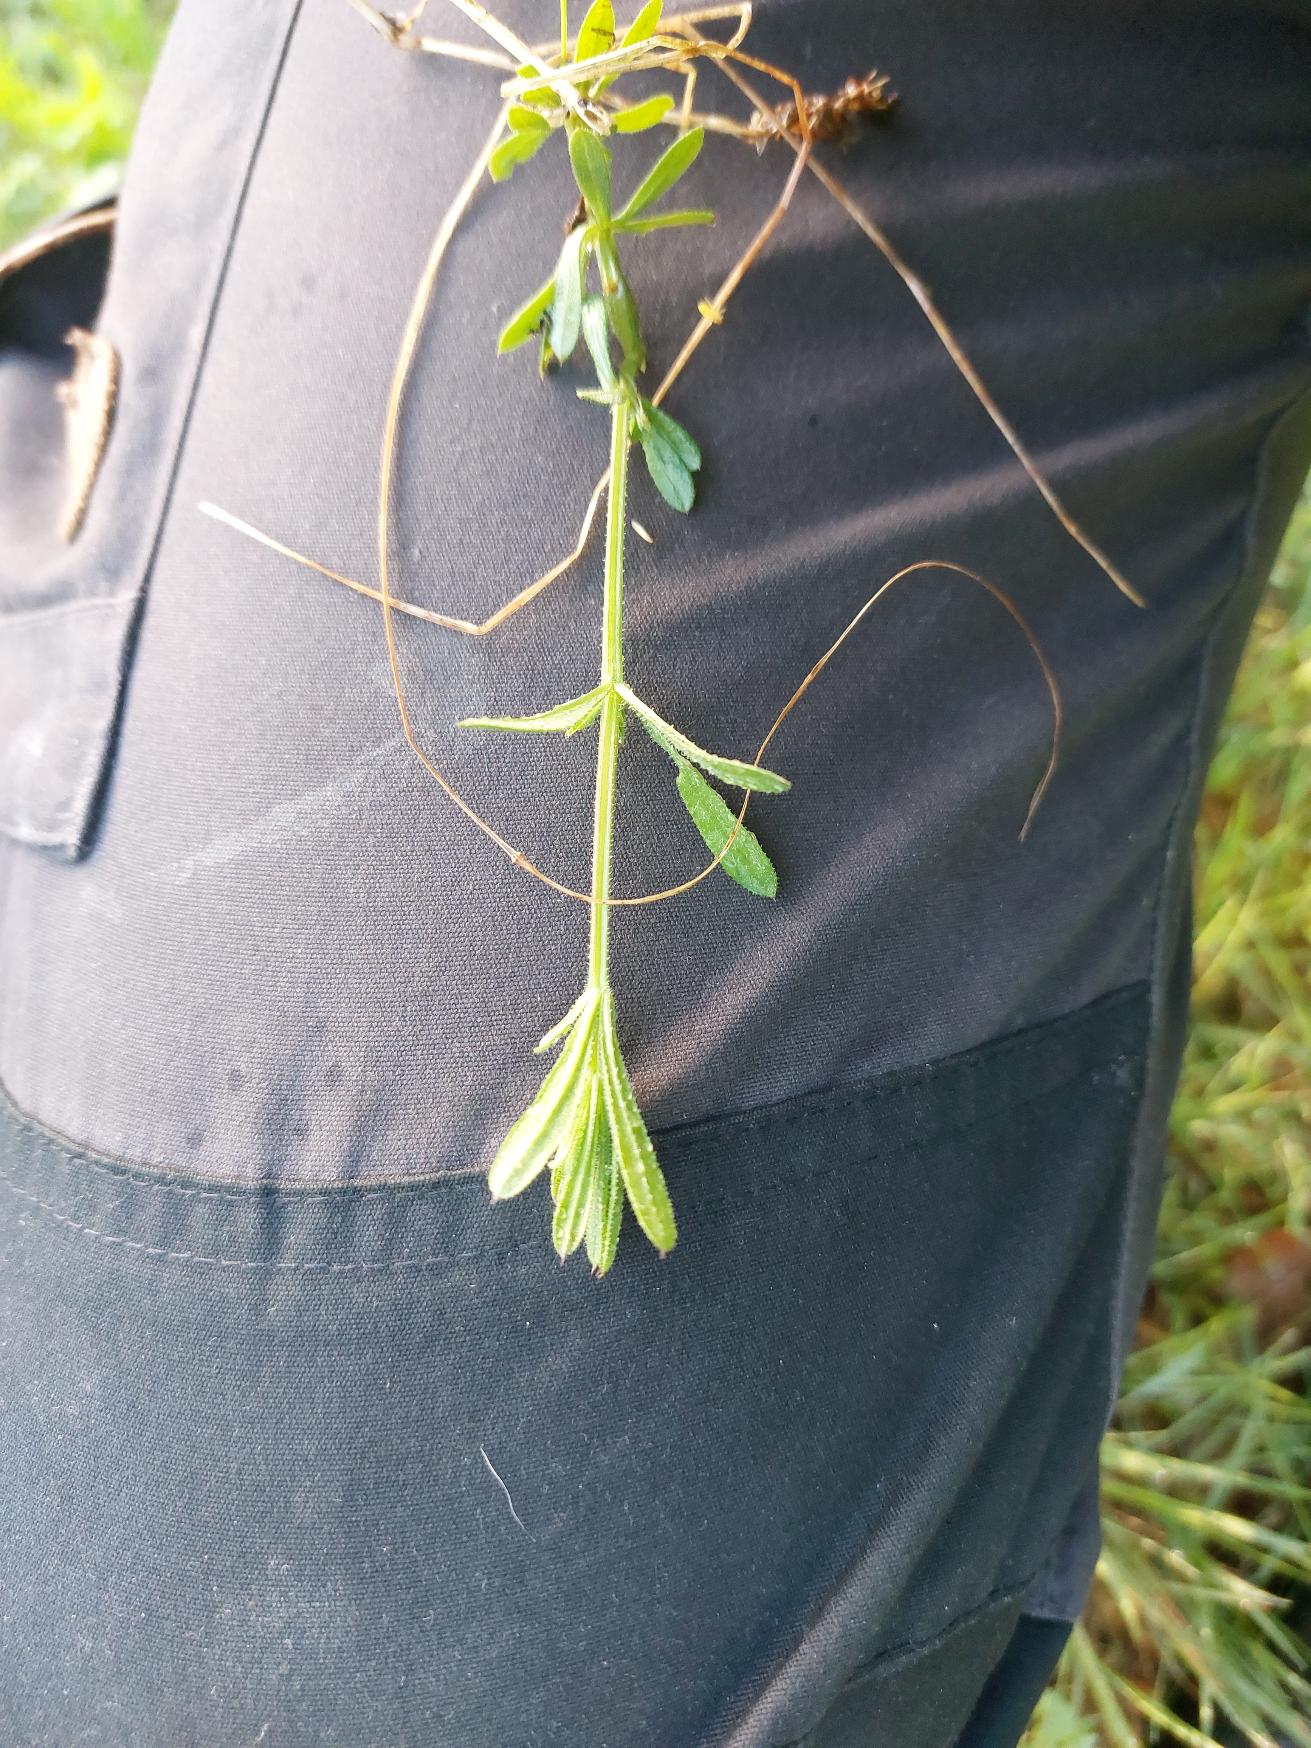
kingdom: Plantae
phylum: Tracheophyta
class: Magnoliopsida
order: Gentianales
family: Rubiaceae
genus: Galium
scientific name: Galium aparine
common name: Burre-snerre
